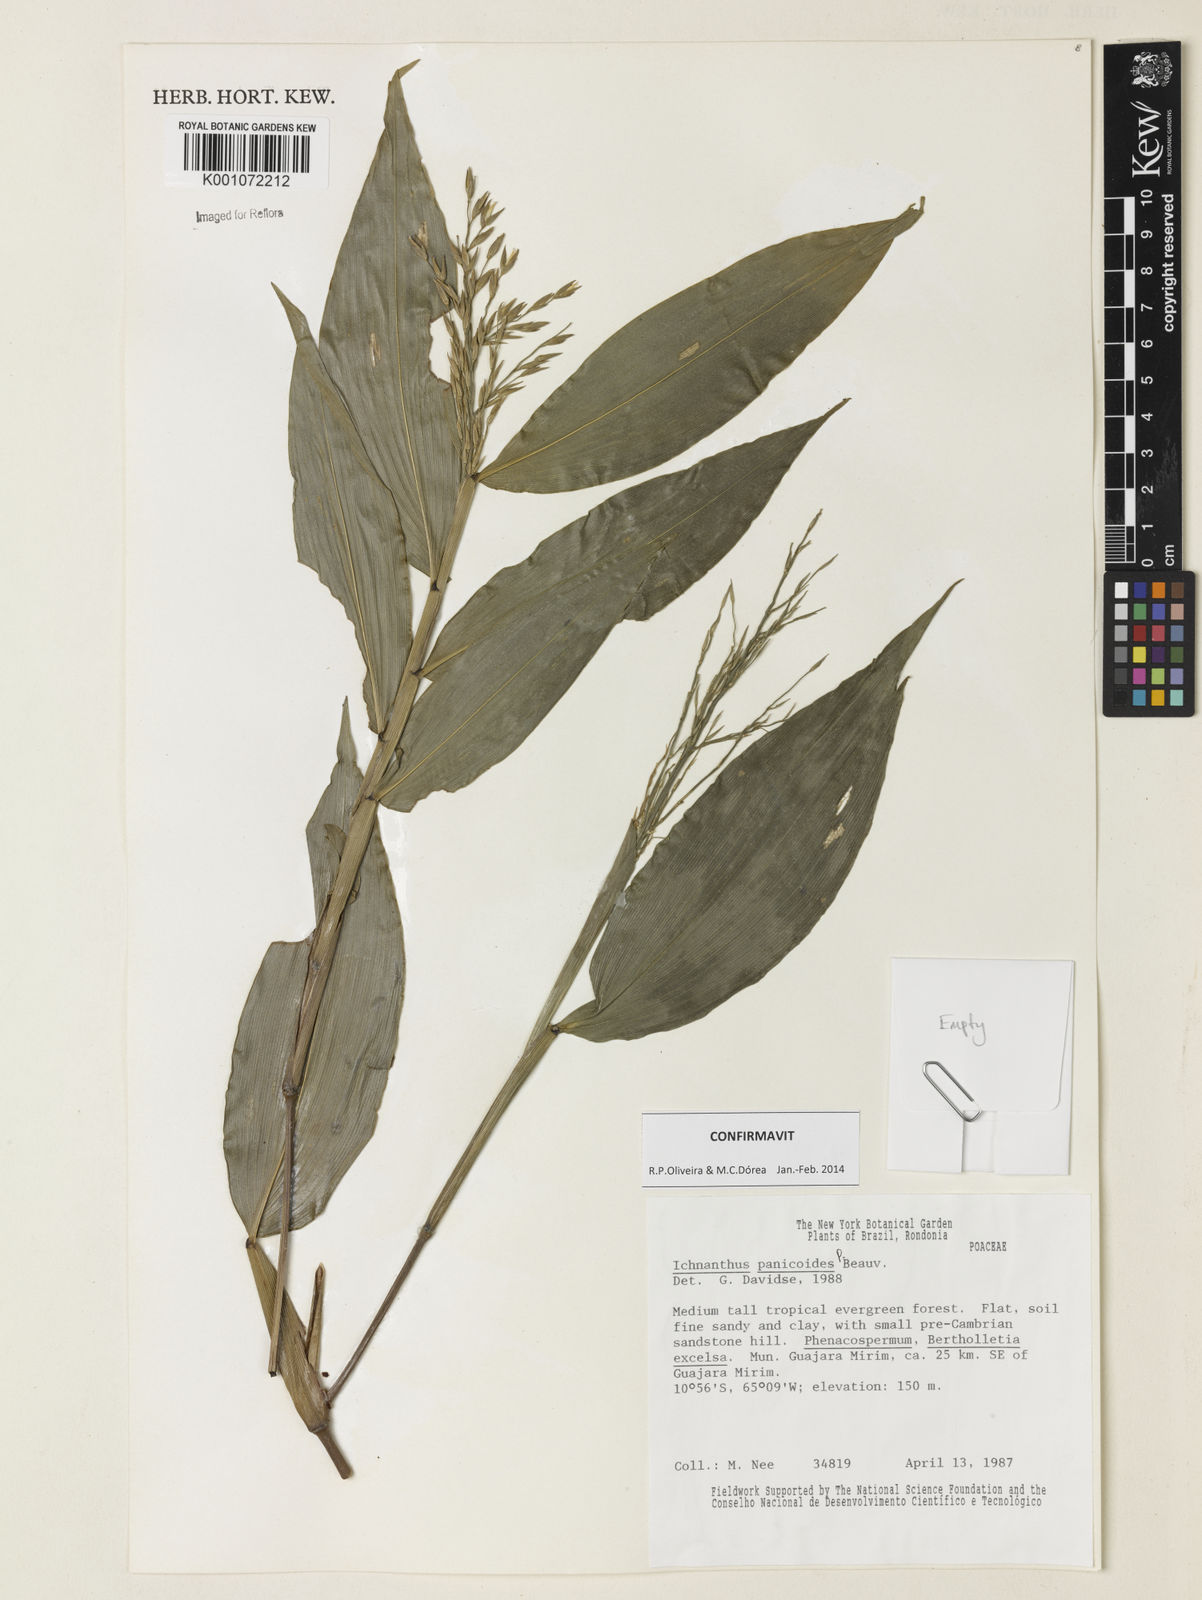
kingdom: Plantae
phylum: Tracheophyta
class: Liliopsida
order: Poales
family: Poaceae
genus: Ichnanthus
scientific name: Ichnanthus panicoides
